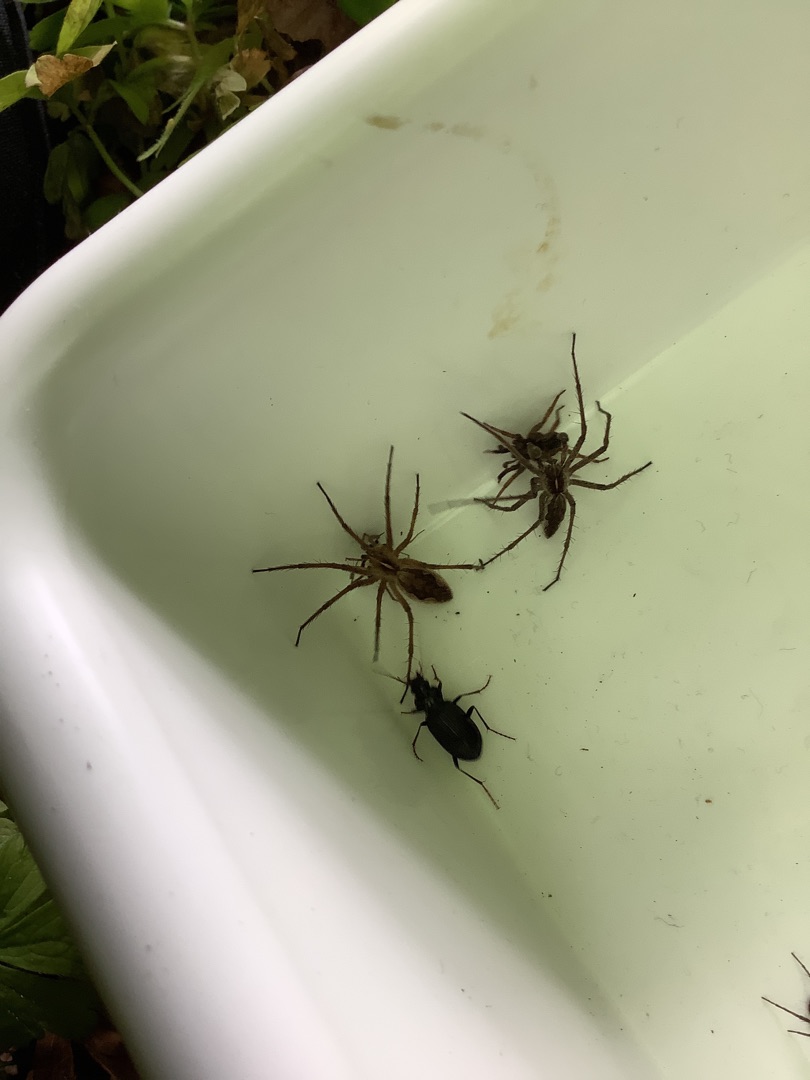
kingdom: Animalia
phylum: Arthropoda
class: Arachnida
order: Araneae
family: Pisauridae
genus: Pisaura
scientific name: Pisaura mirabilis
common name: Almindelig rovedderkop
